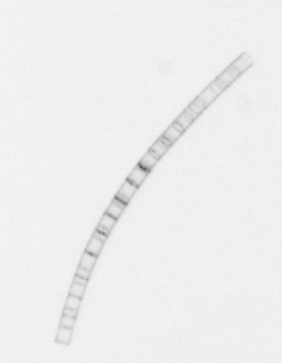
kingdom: Chromista
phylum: Ochrophyta
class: Bacillariophyceae
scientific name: Bacillariophyceae
